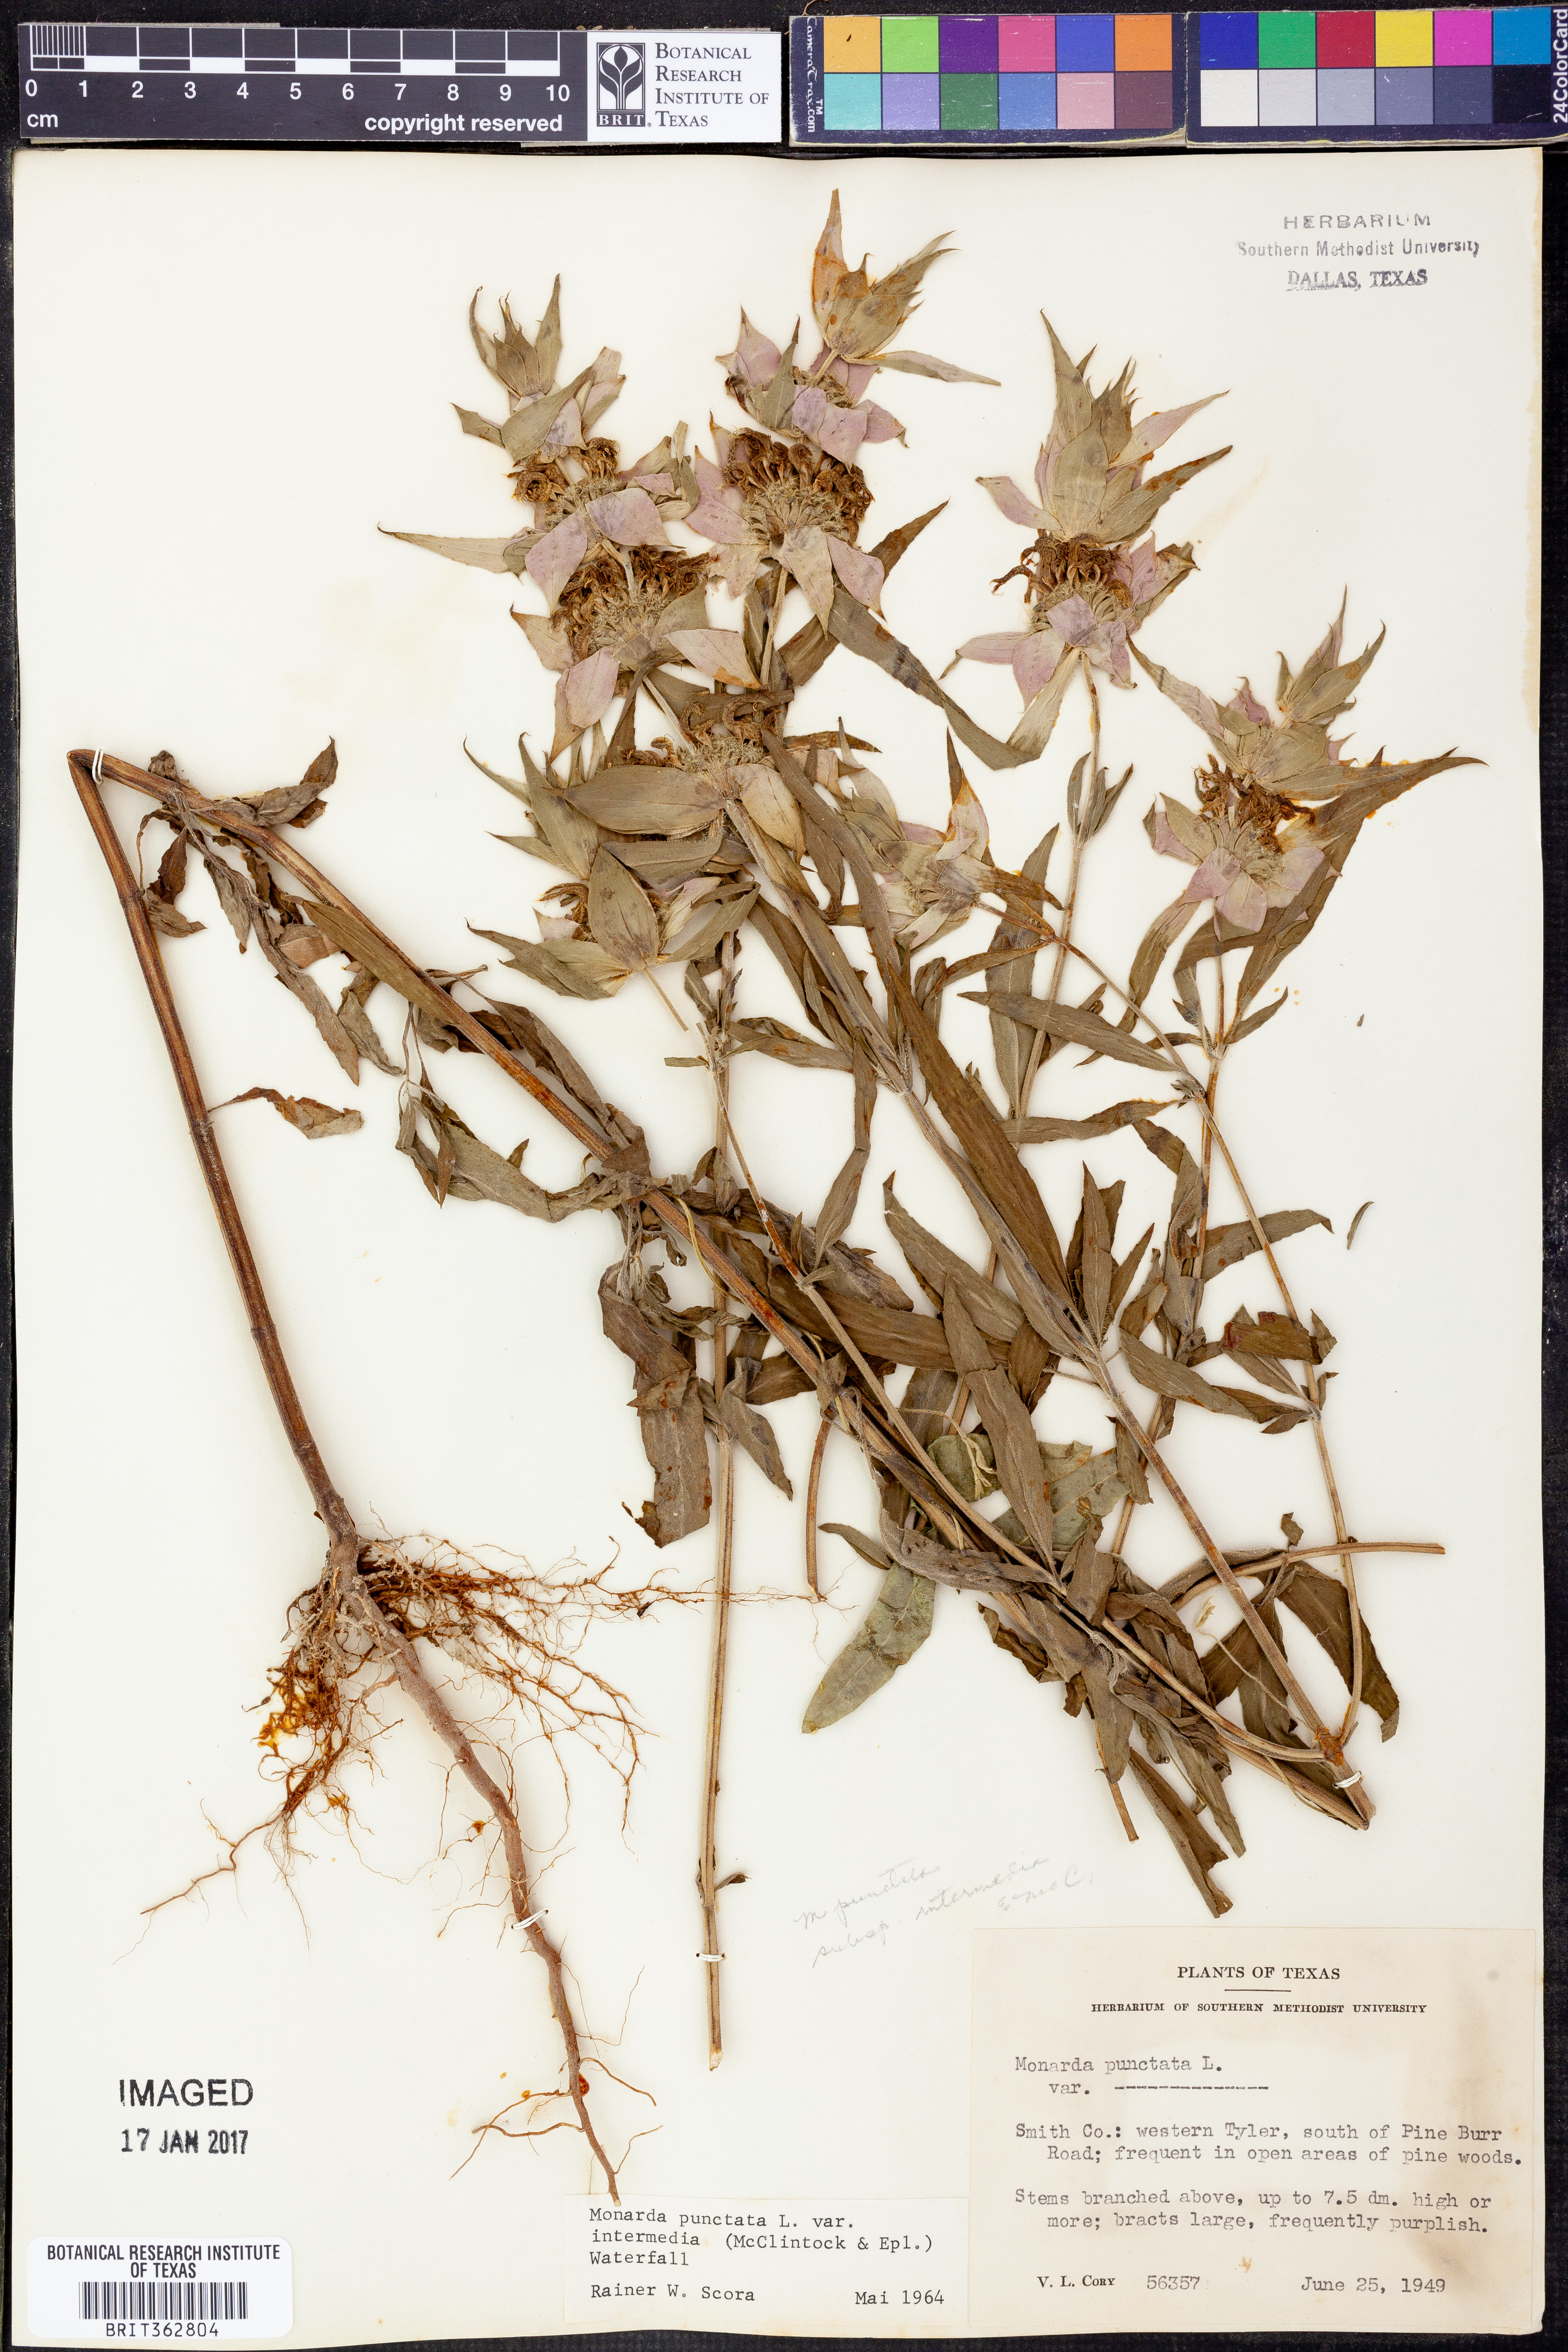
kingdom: Plantae
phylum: Tracheophyta
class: Magnoliopsida
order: Lamiales
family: Lamiaceae
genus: Monarda
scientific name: Monarda punctata
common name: Dotted monarda
